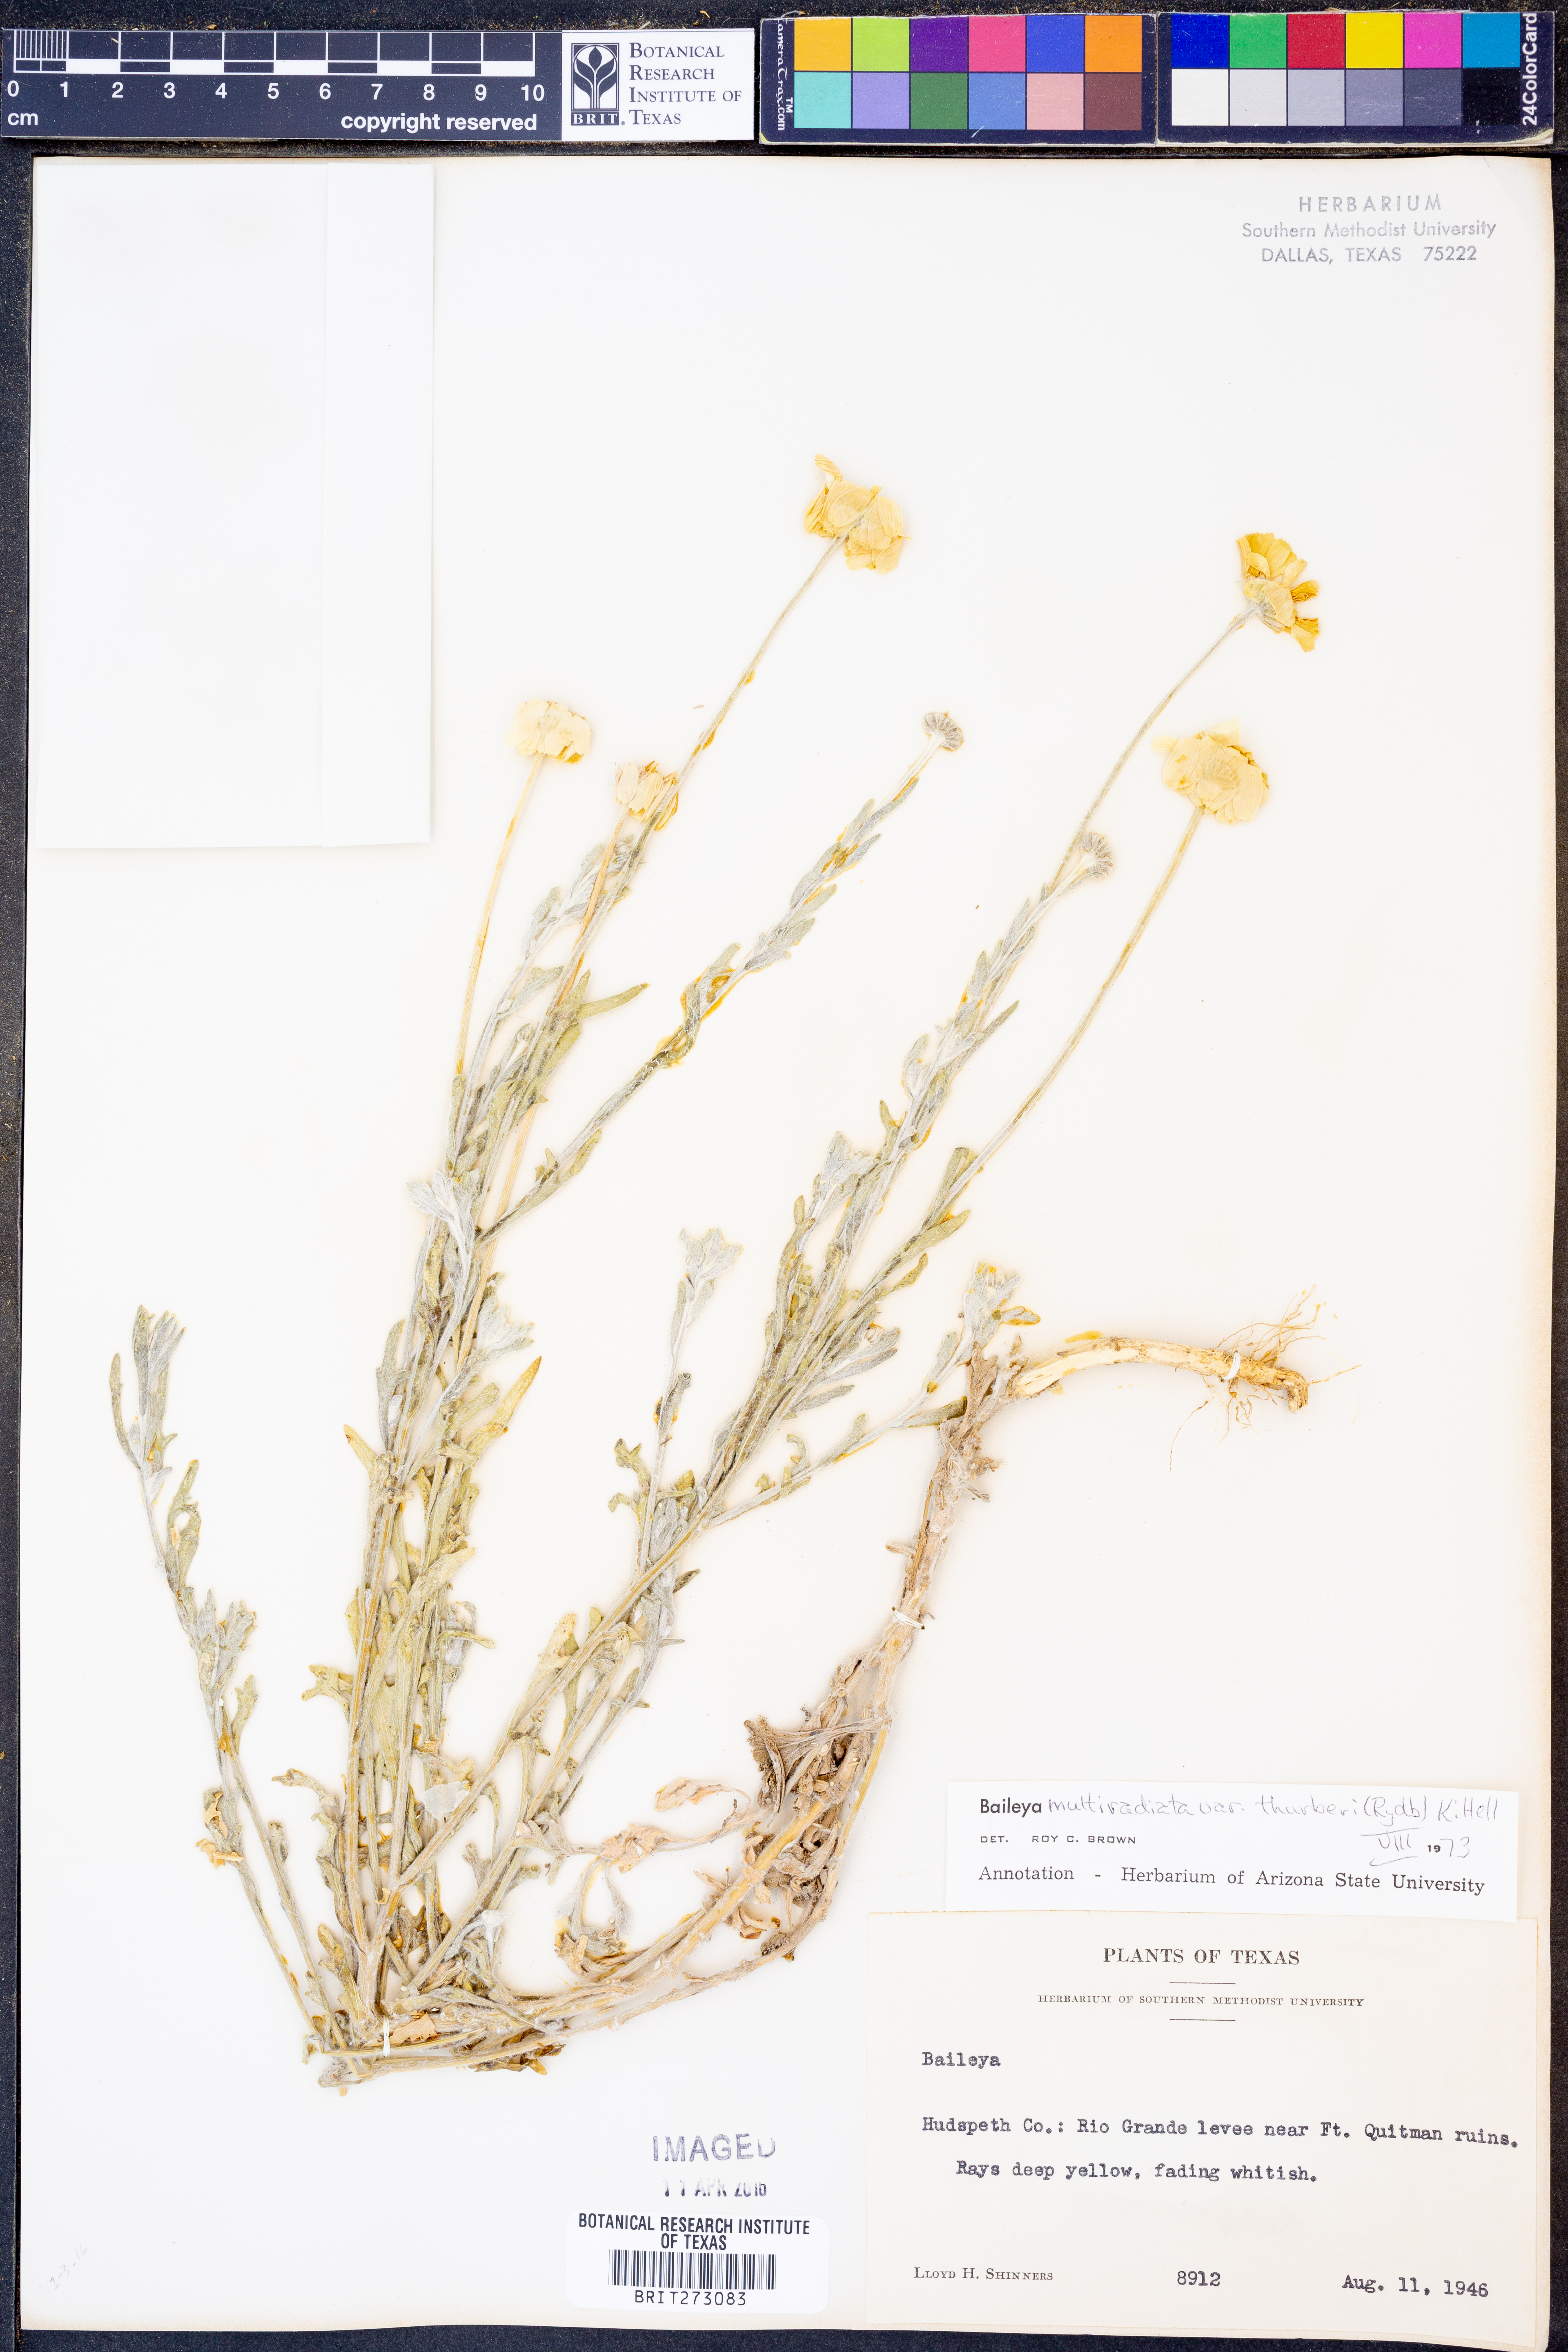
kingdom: Plantae
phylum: Tracheophyta
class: Magnoliopsida
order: Asterales
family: Asteraceae
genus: Baileya
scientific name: Baileya multiradiata
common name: Desert-marigold
